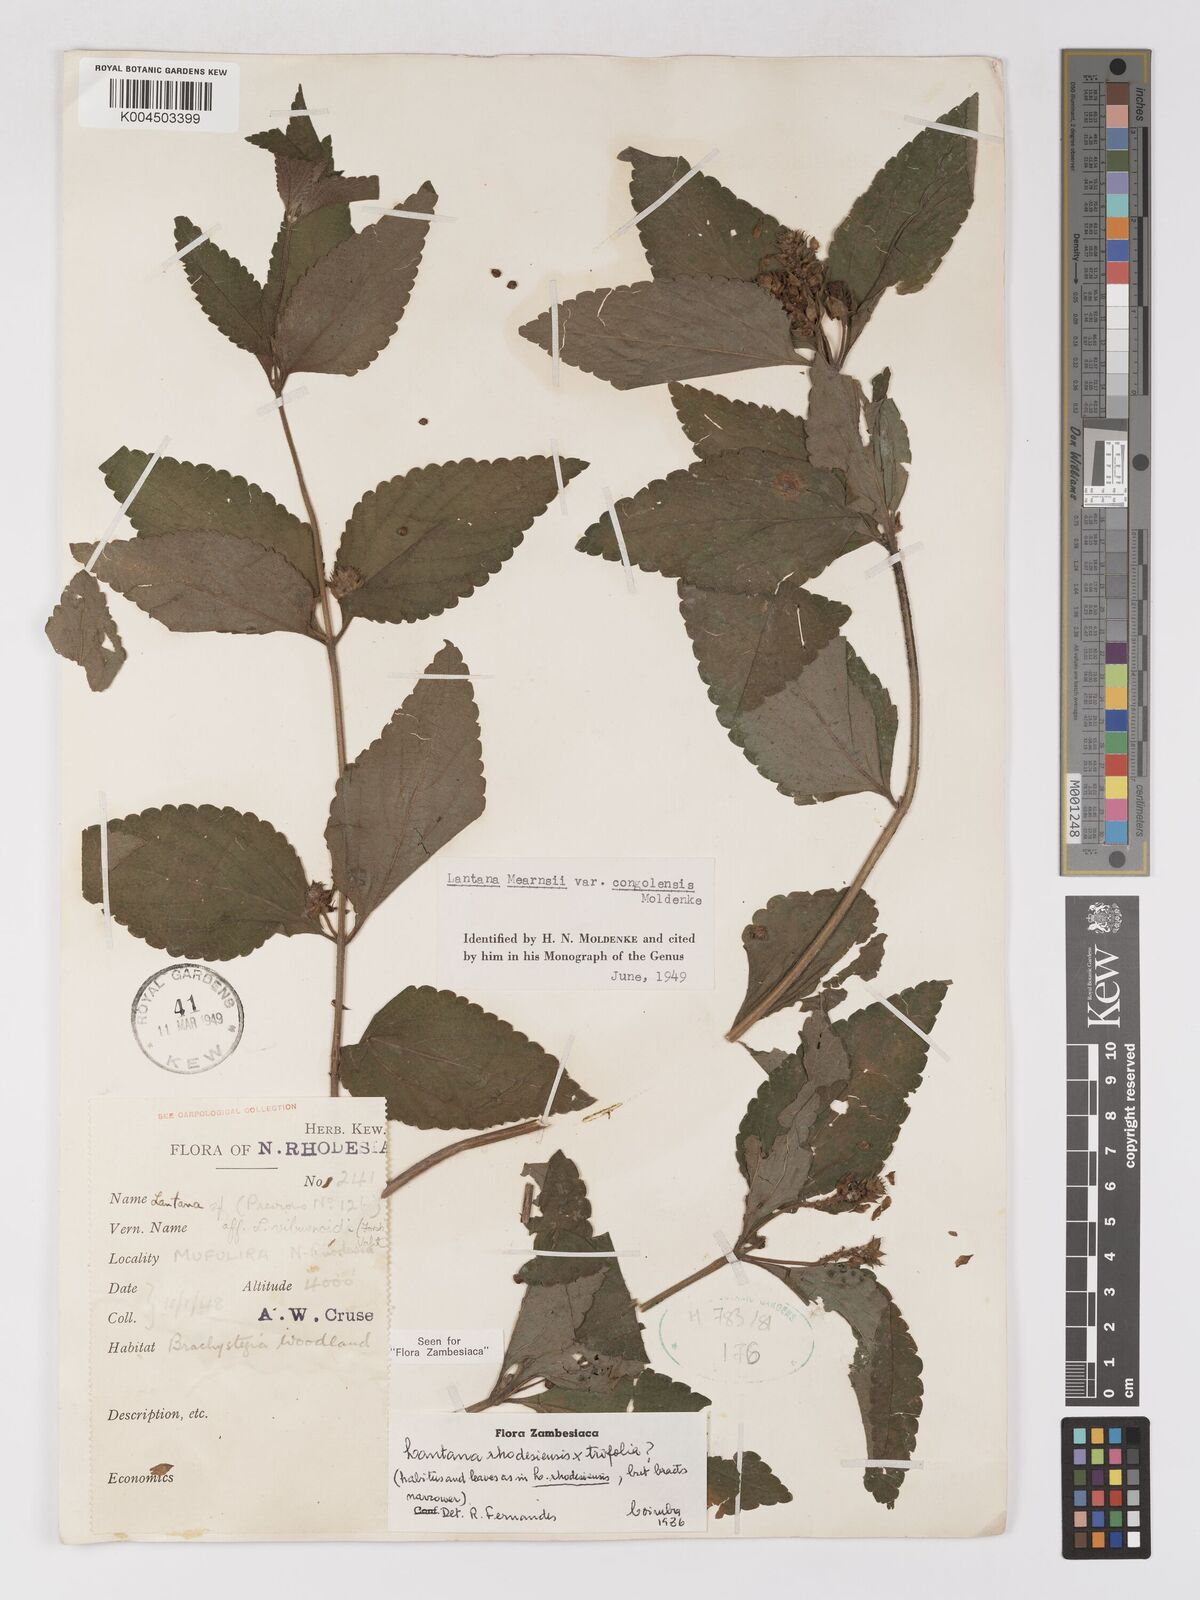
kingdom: Plantae
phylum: Tracheophyta
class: Magnoliopsida
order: Lamiales
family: Verbenaceae
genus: Lantana
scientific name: Lantana ukambensis
